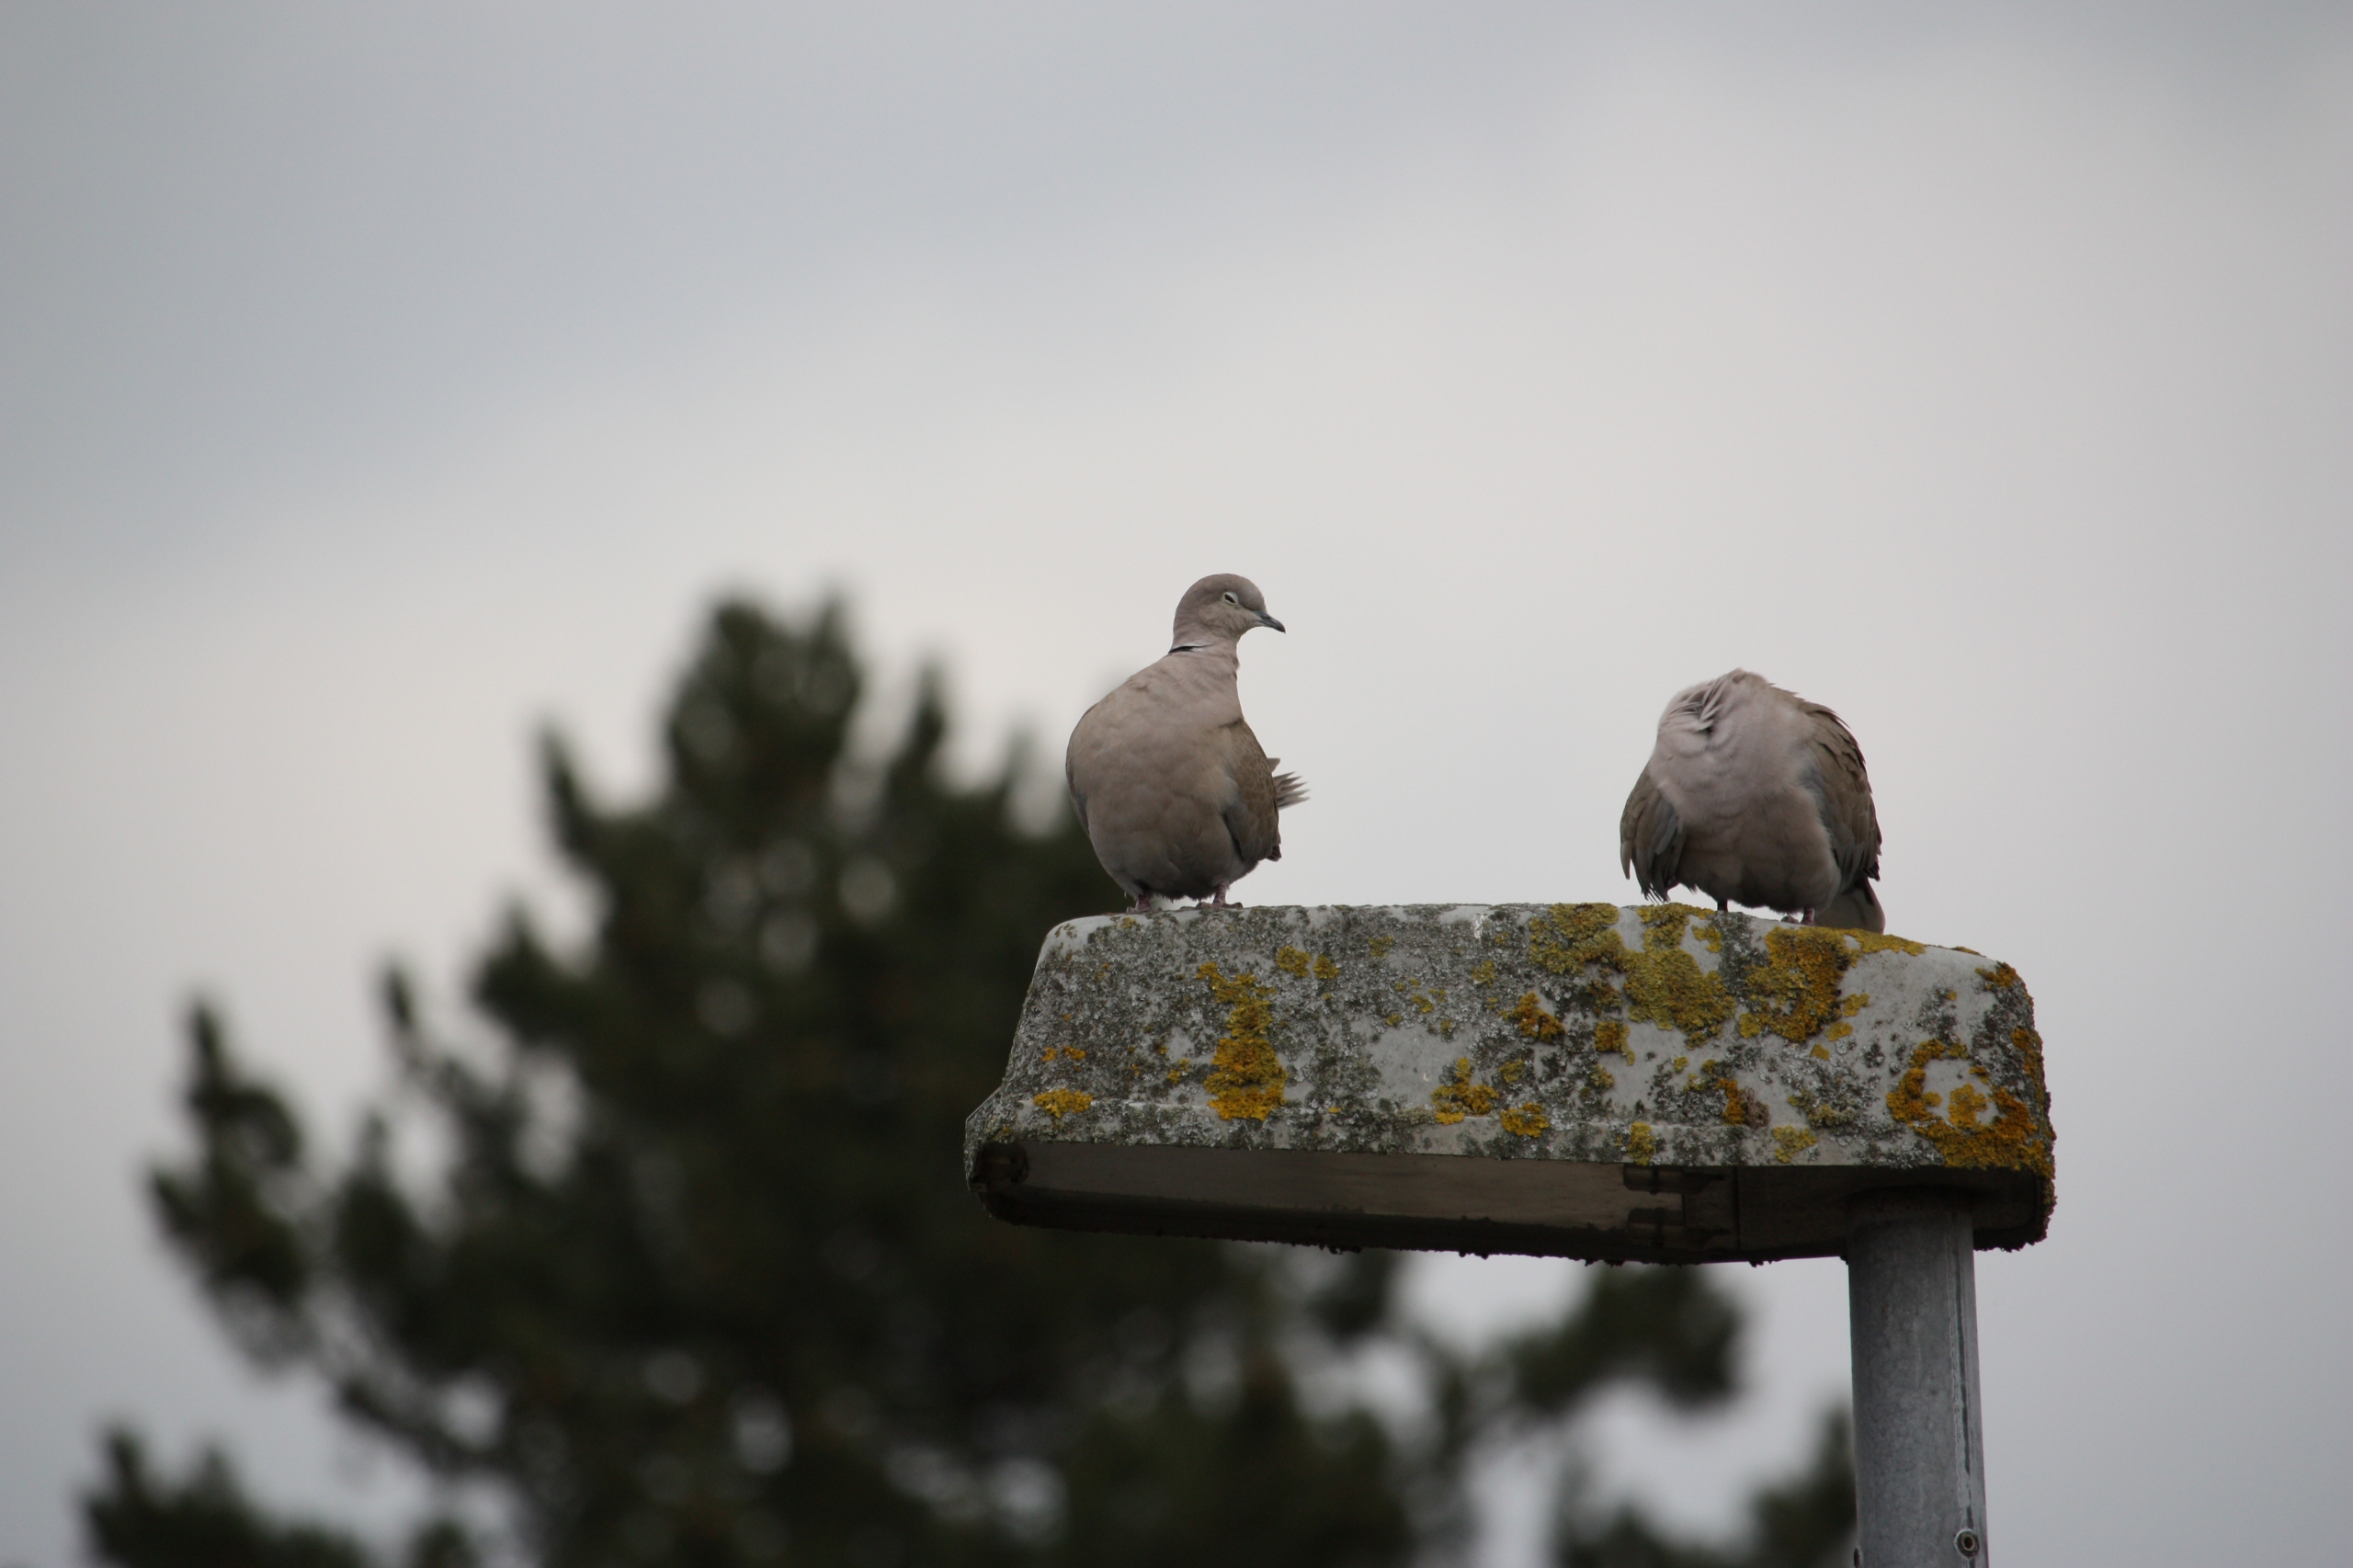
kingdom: Animalia
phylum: Chordata
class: Aves
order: Columbiformes
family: Columbidae
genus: Streptopelia
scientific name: Streptopelia decaocto
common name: Tyrkerdue
